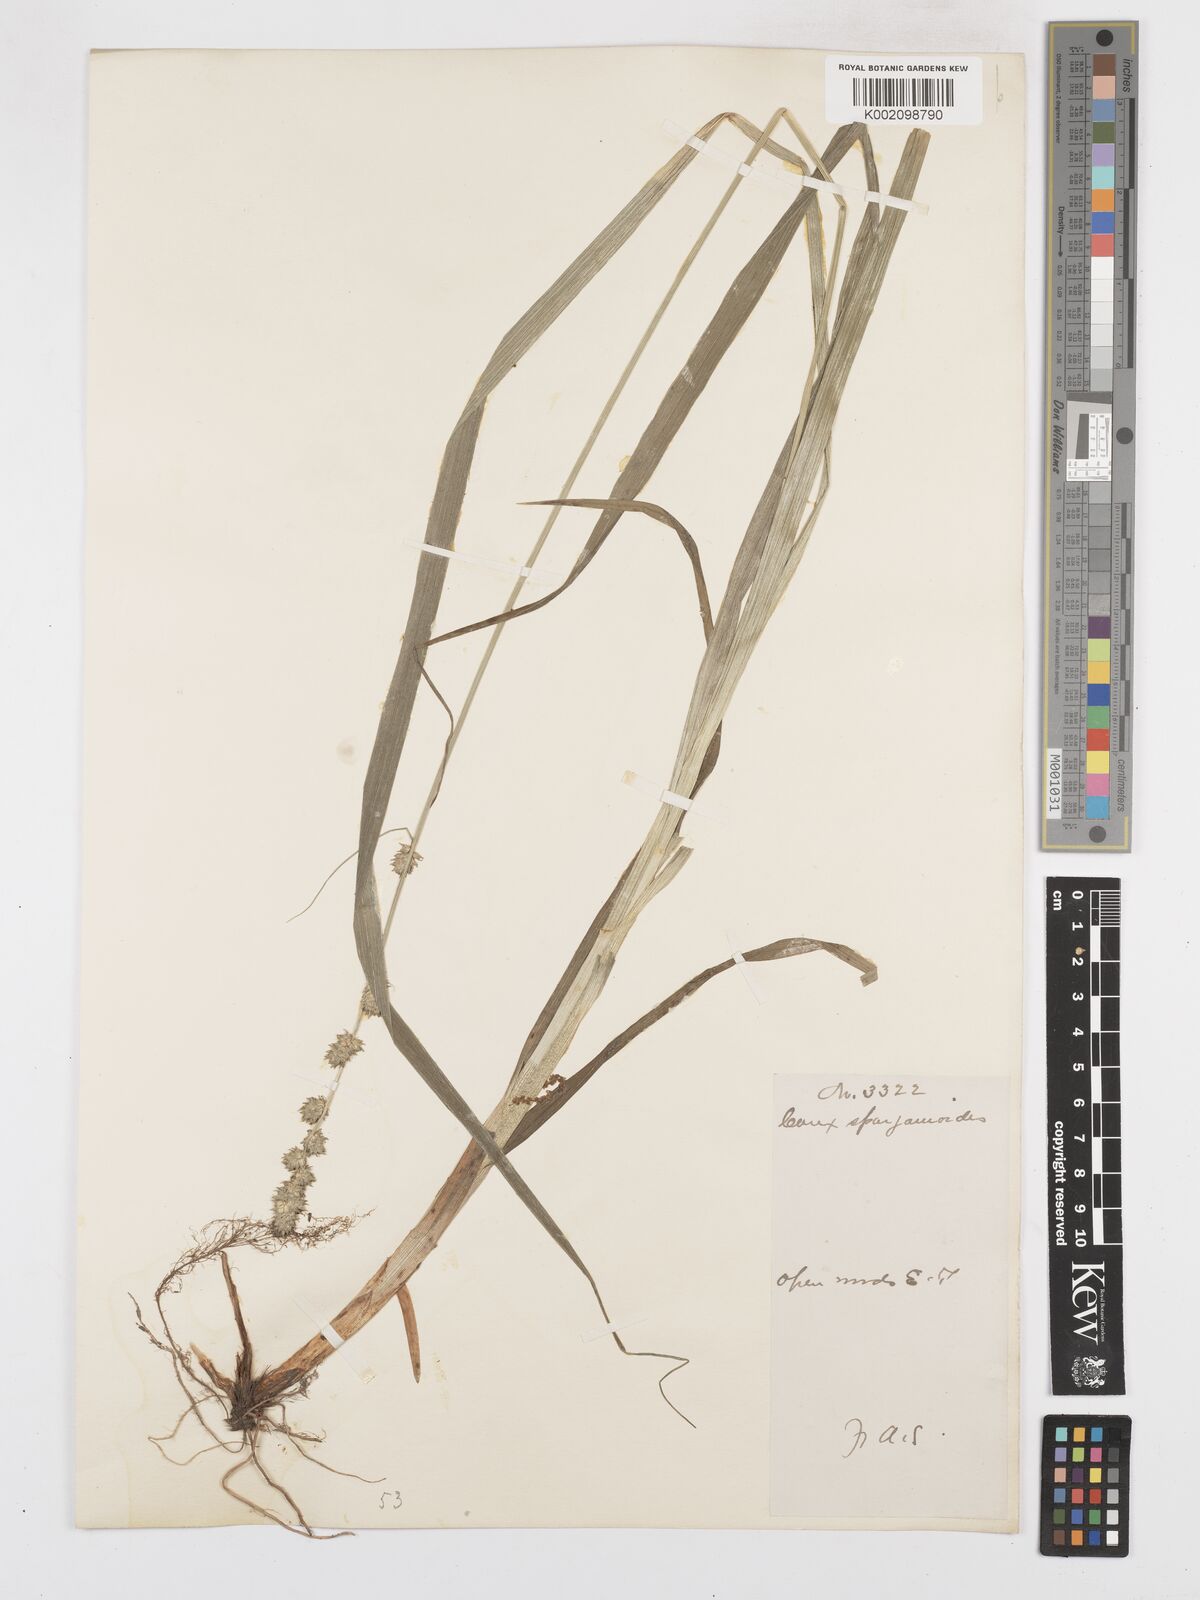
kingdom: Plantae
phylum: Tracheophyta
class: Liliopsida
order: Poales
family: Cyperaceae
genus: Carex
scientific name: Carex sparganioides
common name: Burreed sedge
